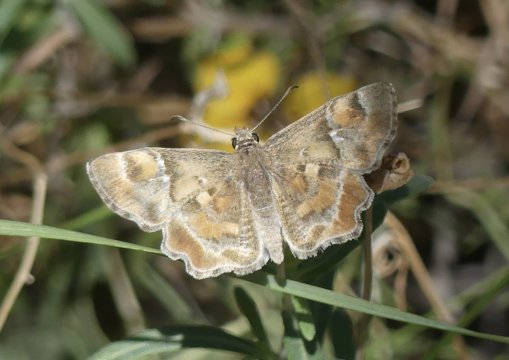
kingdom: Animalia
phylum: Arthropoda
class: Insecta
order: Lepidoptera
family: Hesperiidae
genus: Systasea
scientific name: Systasea zampa
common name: Arizona Powdered-Skipper
